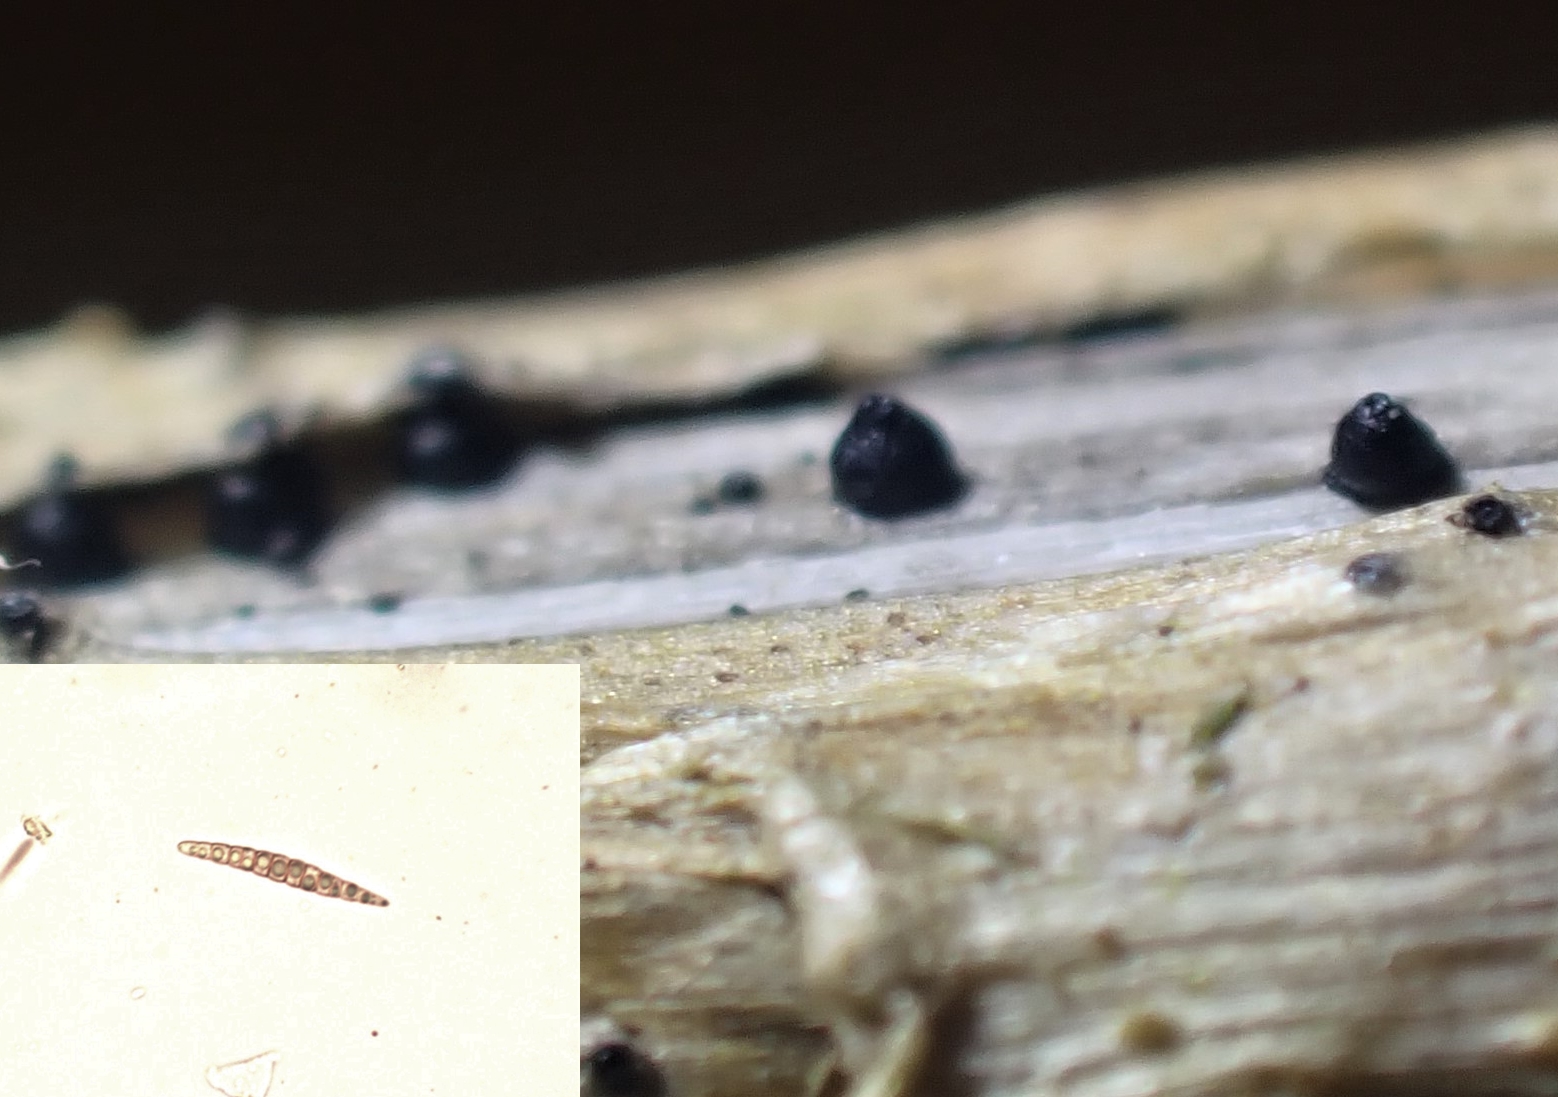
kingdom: Fungi
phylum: Ascomycota
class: Dothideomycetes
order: Pleosporales
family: Leptosphaeriaceae
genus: Leptosphaeria
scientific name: Leptosphaeria acuta
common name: spids kulkegle
